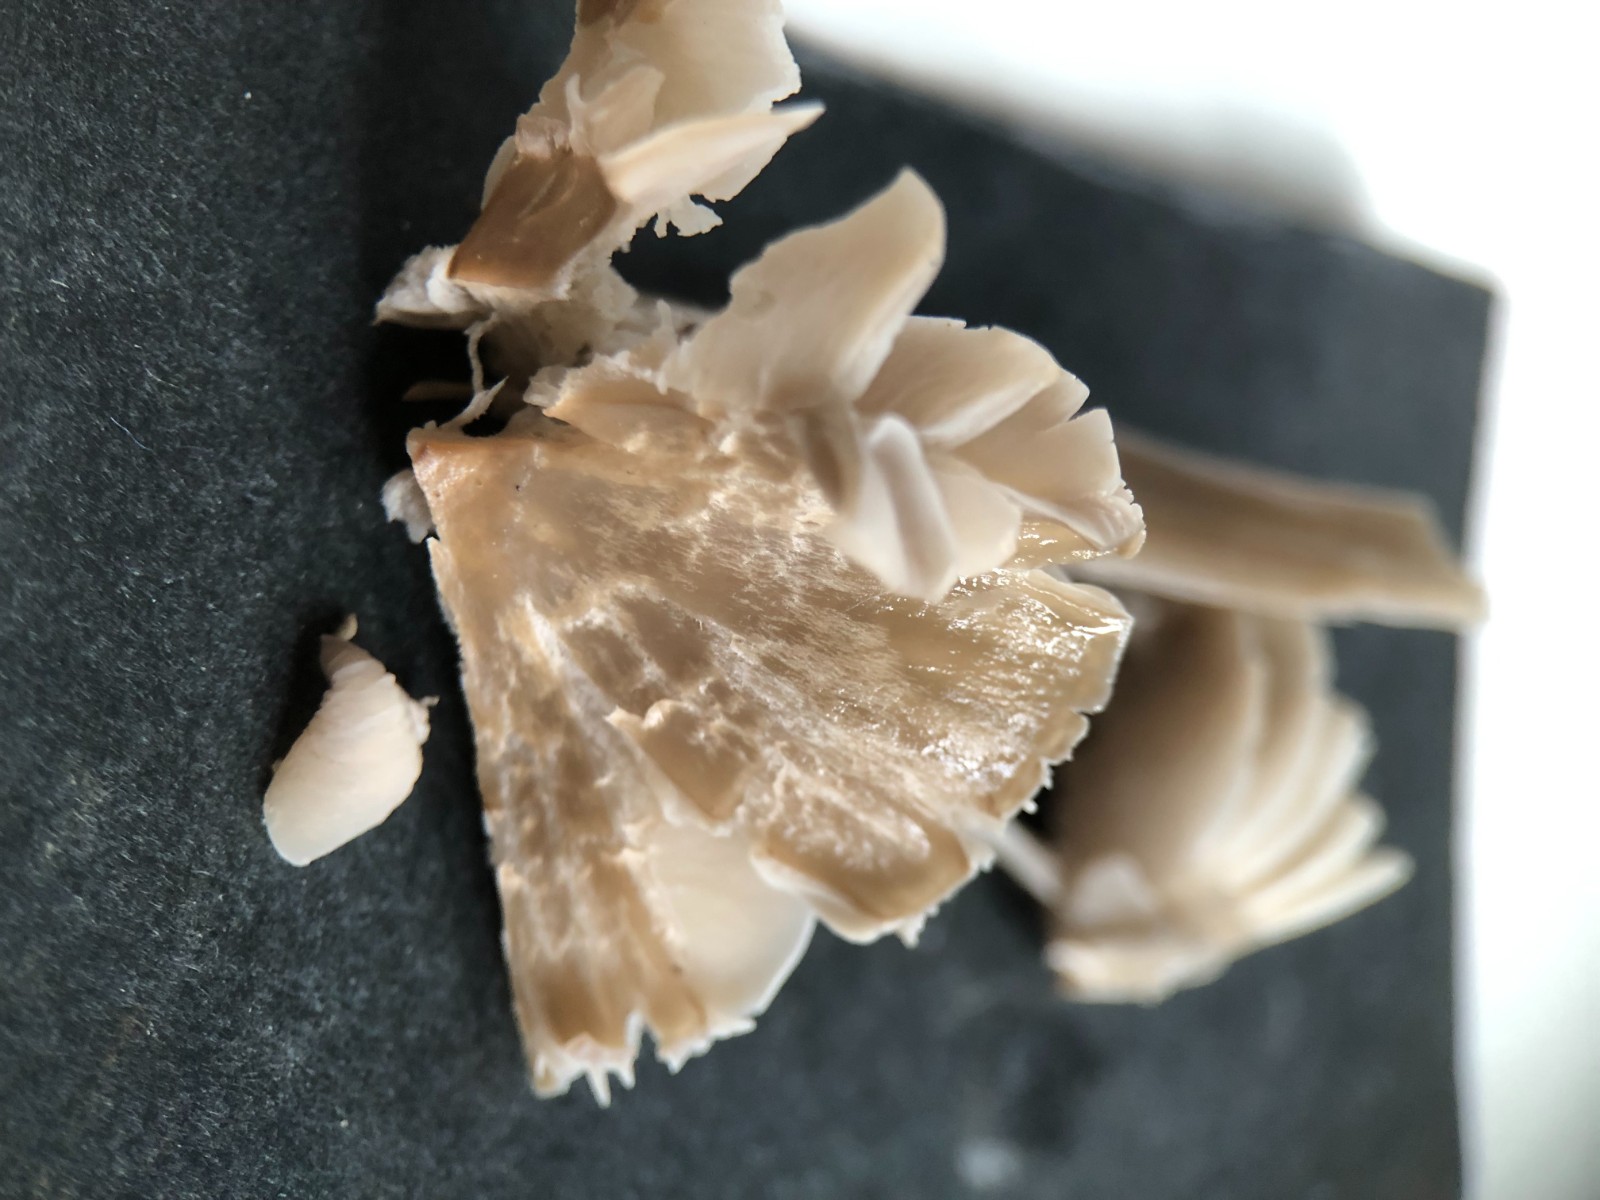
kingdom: Fungi
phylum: Basidiomycota
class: Agaricomycetes
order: Agaricales
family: Hygrophoraceae
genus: Gliophorus
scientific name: Gliophorus irrigatus
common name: slimet vokshat
